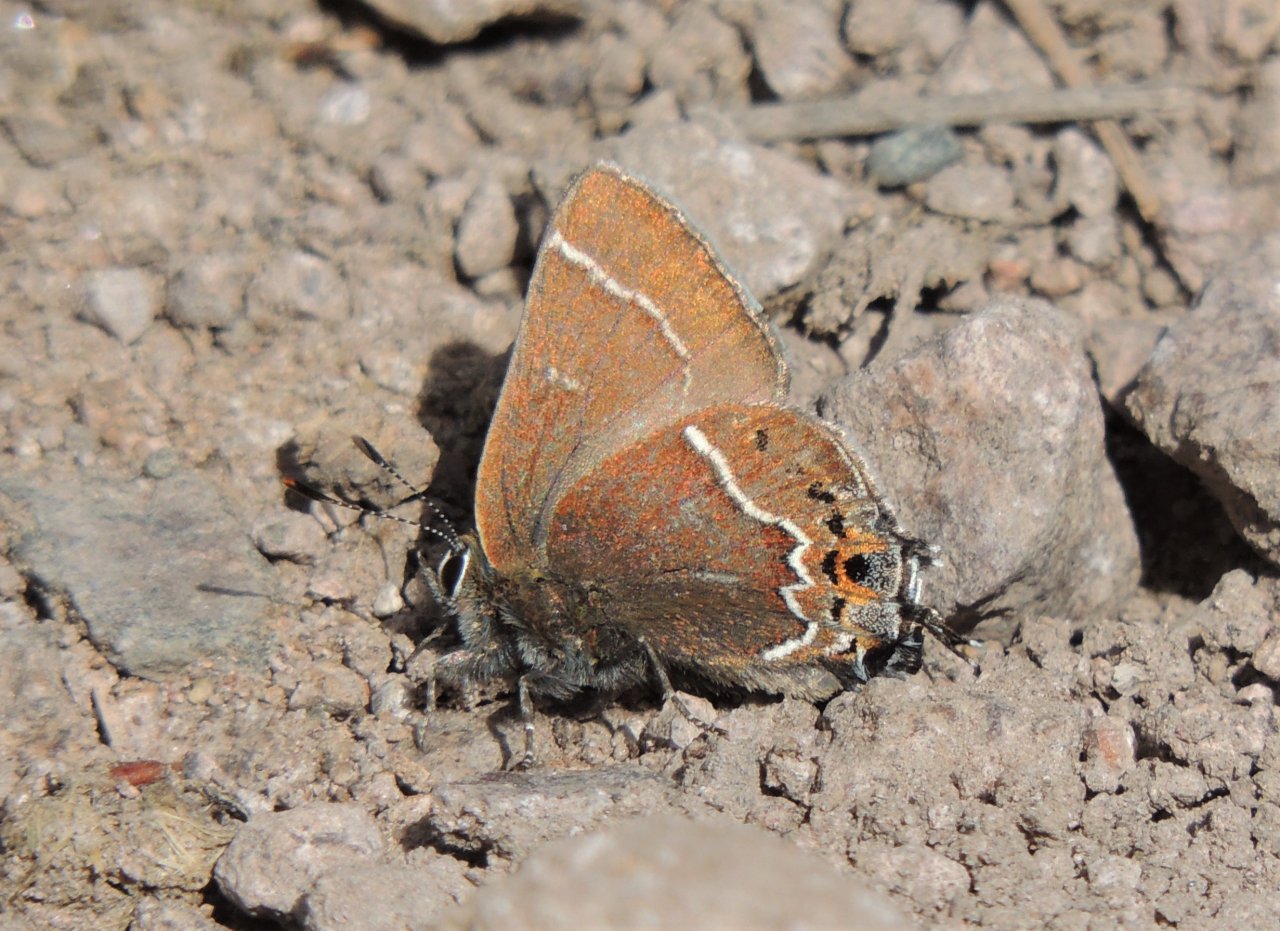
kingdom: Animalia
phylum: Arthropoda
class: Insecta
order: Lepidoptera
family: Lycaenidae
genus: Mitoura
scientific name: Mitoura spinetorum
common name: Thicket Hairstreak
